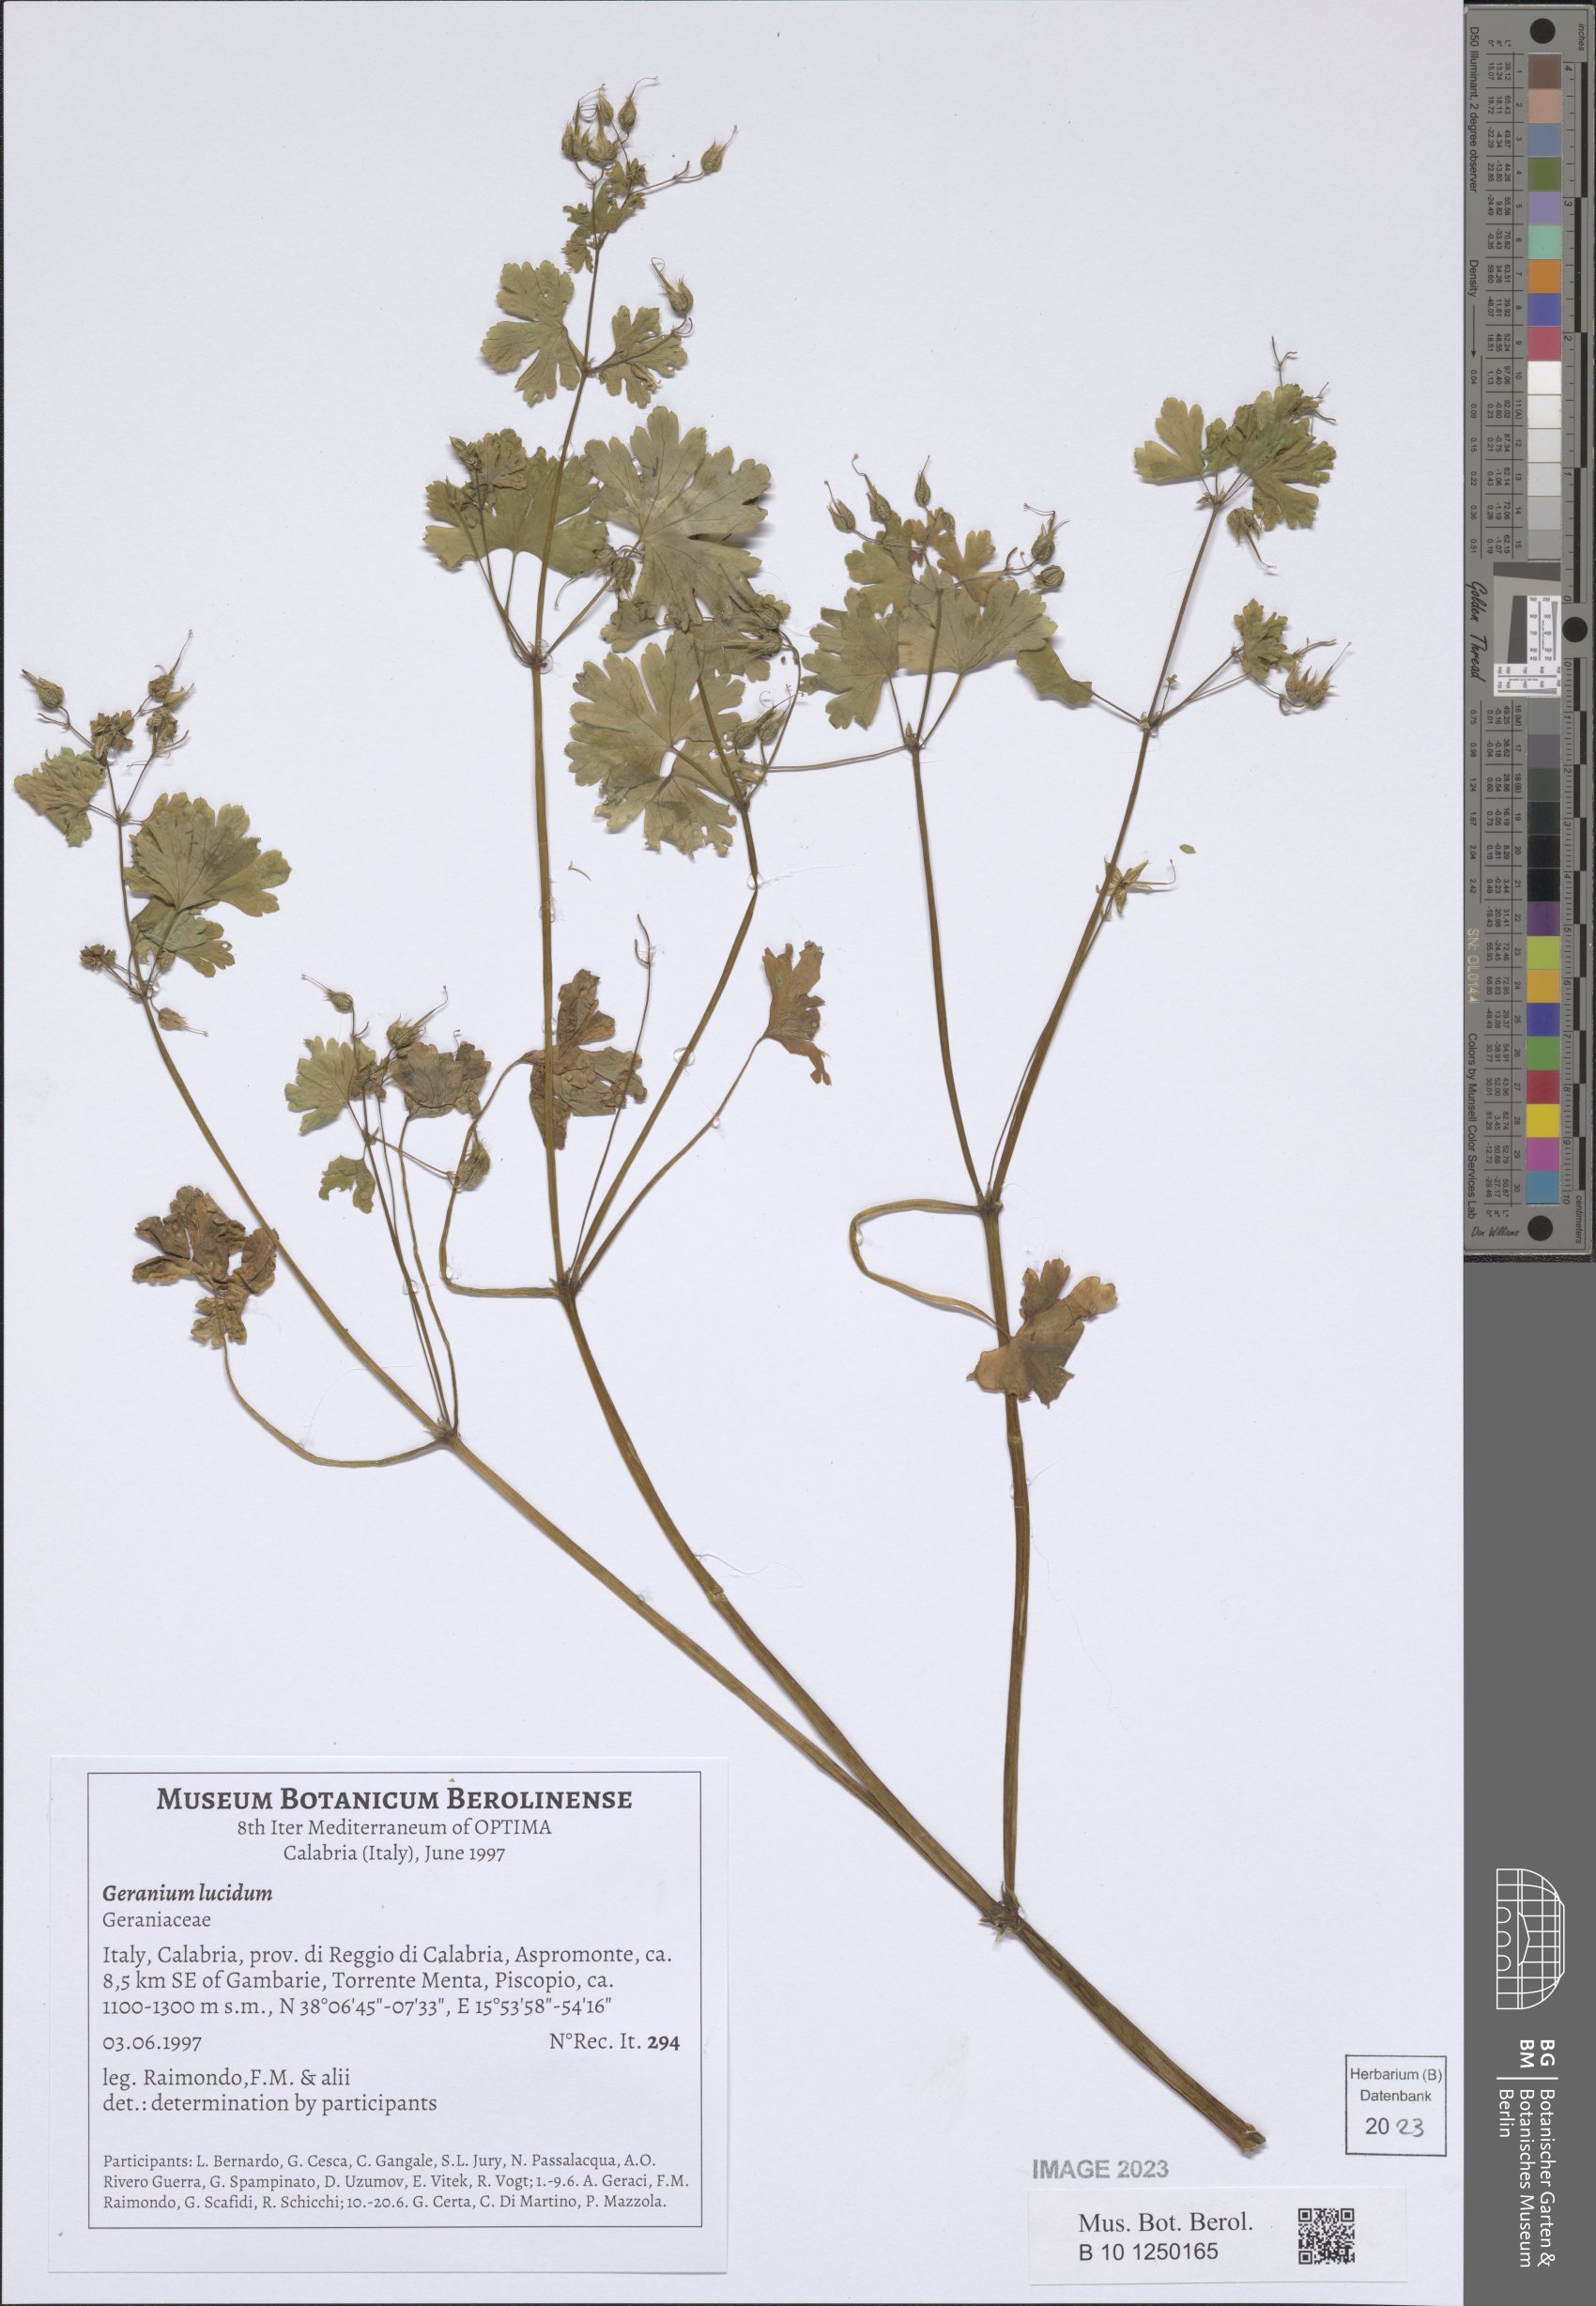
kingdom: Plantae
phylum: Tracheophyta
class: Magnoliopsida
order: Geraniales
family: Geraniaceae
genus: Geranium
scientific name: Geranium lucidum
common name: Shining crane's-bill
